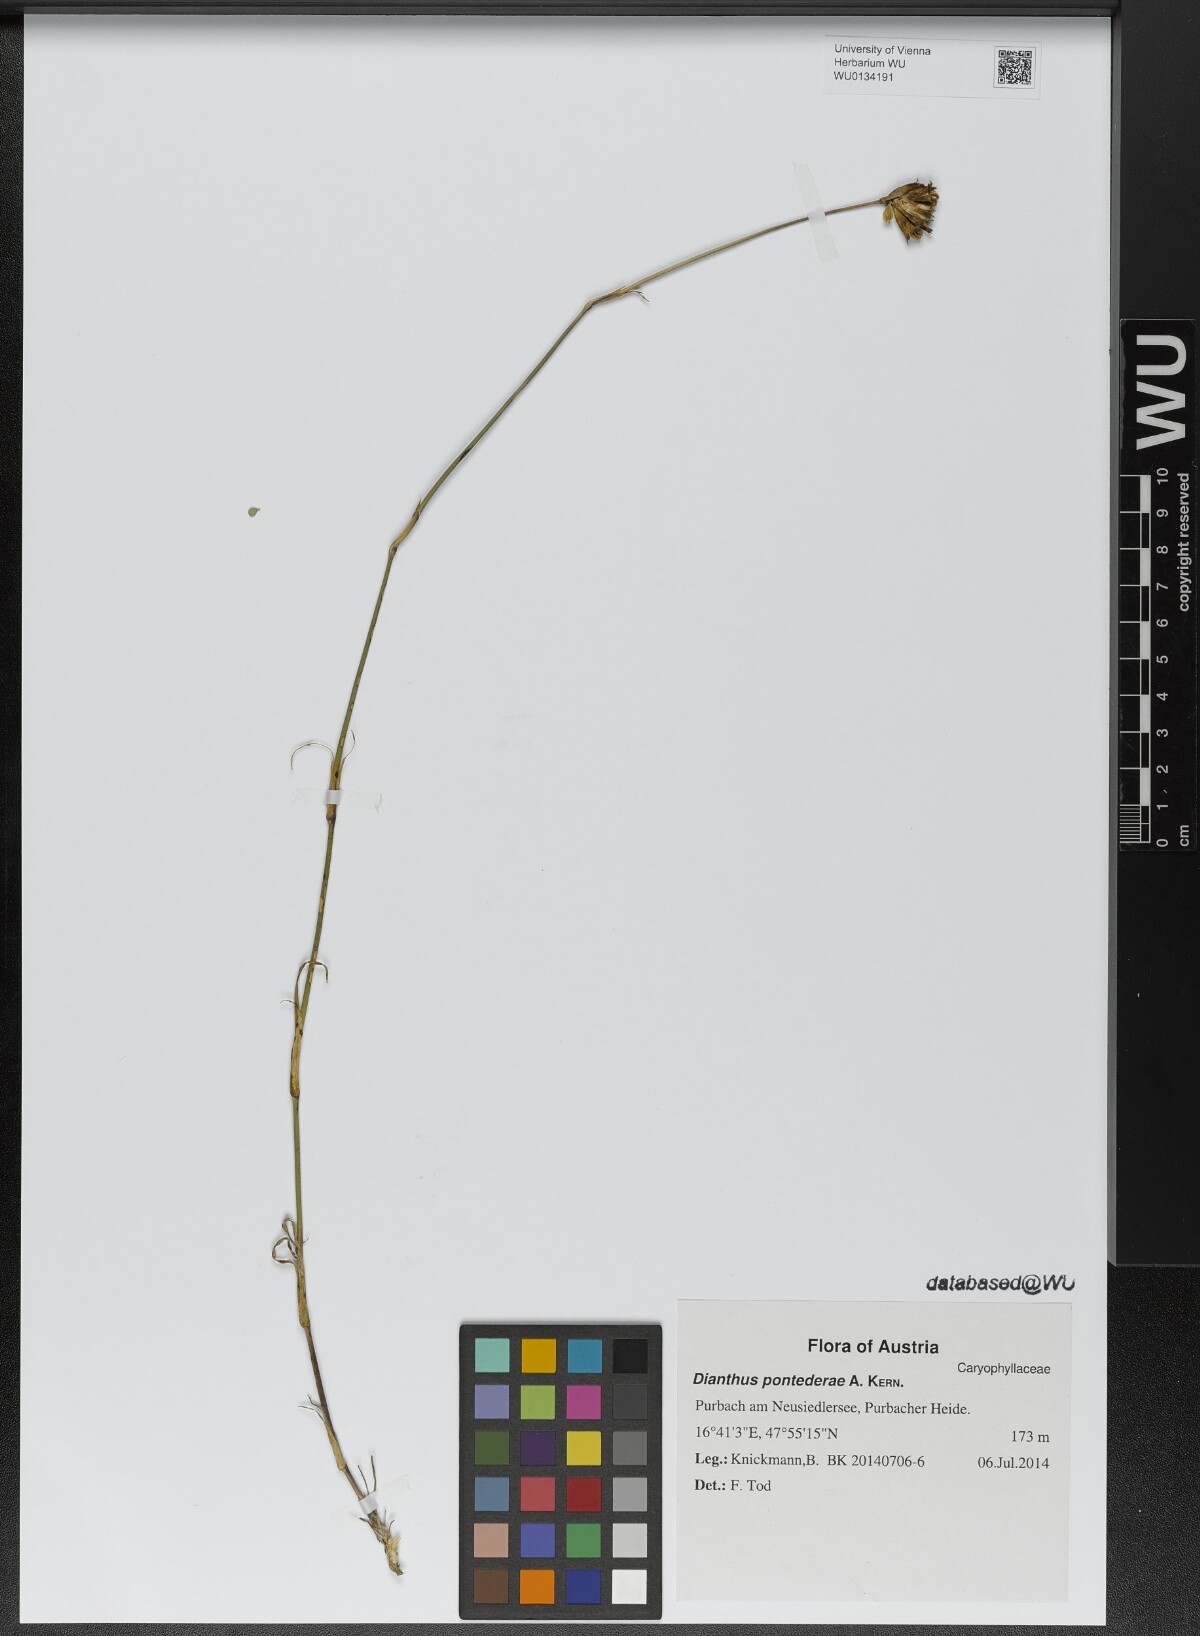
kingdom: Plantae
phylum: Tracheophyta
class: Magnoliopsida
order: Caryophyllales
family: Caryophyllaceae
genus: Dianthus
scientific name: Dianthus pontederae
